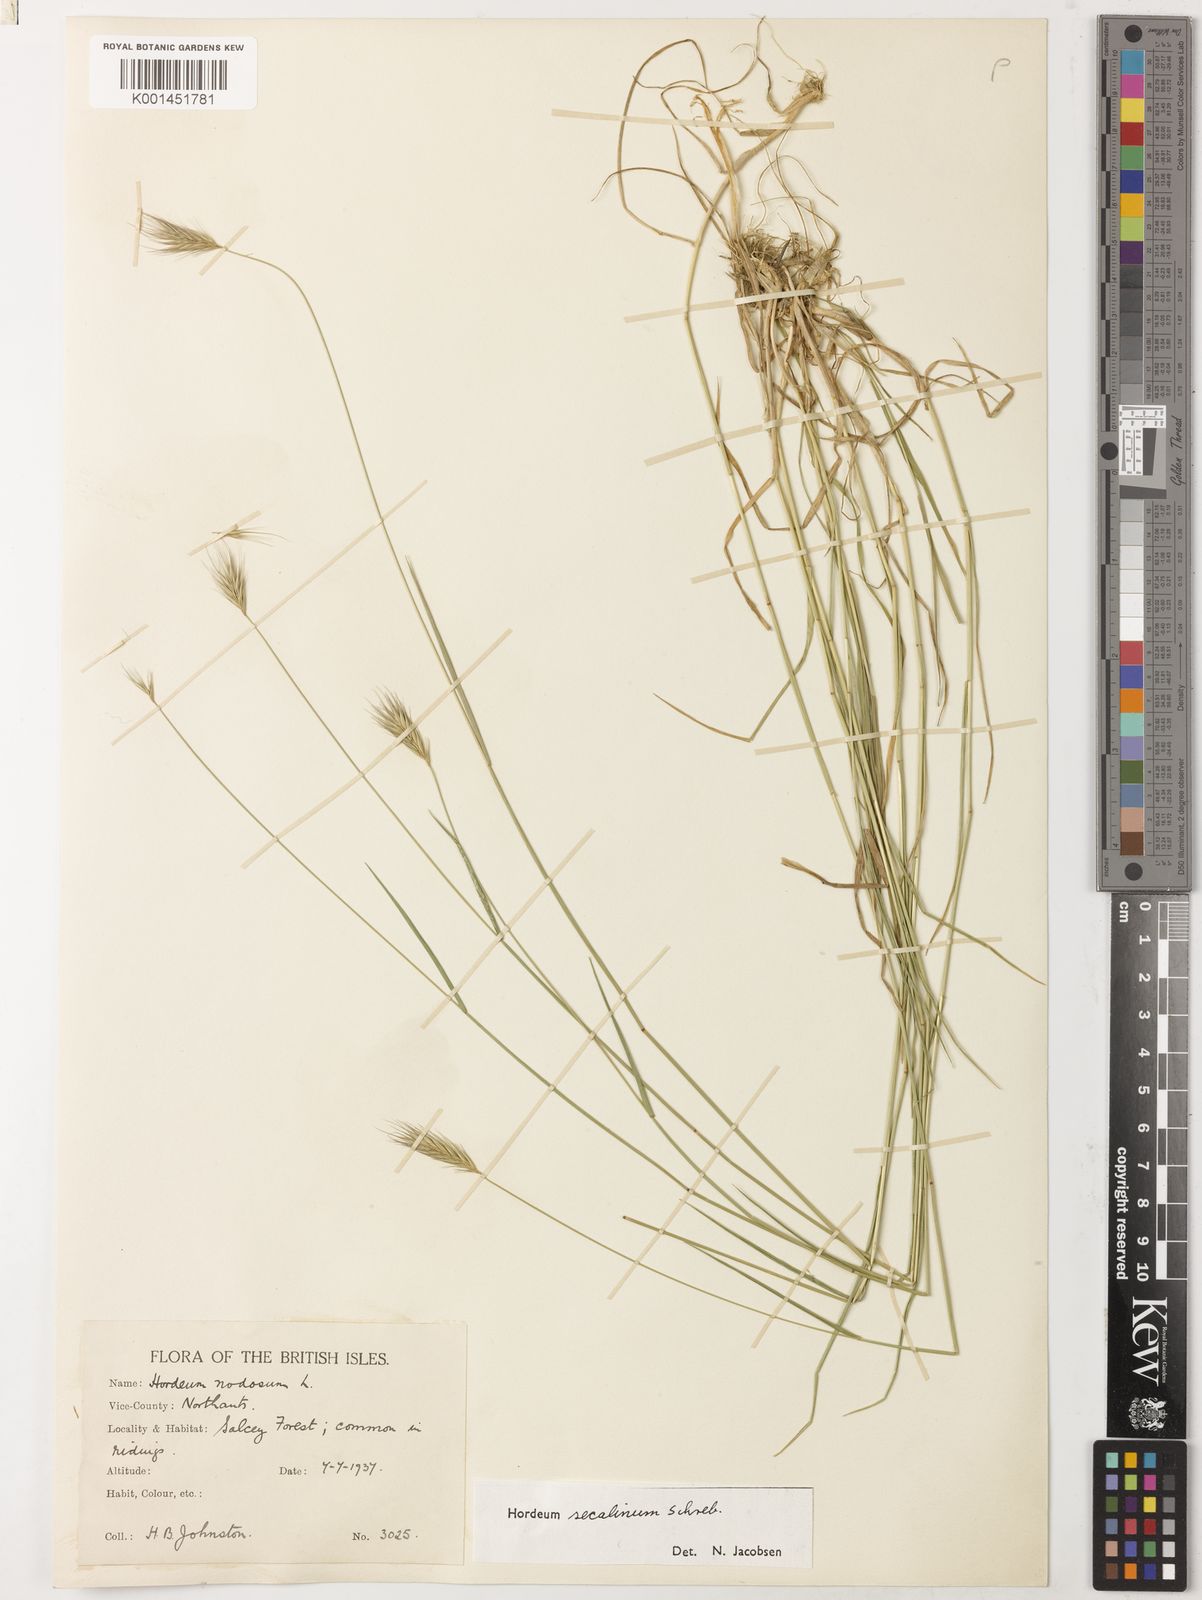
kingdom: Plantae
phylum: Tracheophyta
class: Liliopsida
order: Poales
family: Poaceae
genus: Hordeum
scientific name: Hordeum secalinum
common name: Meadow barley
